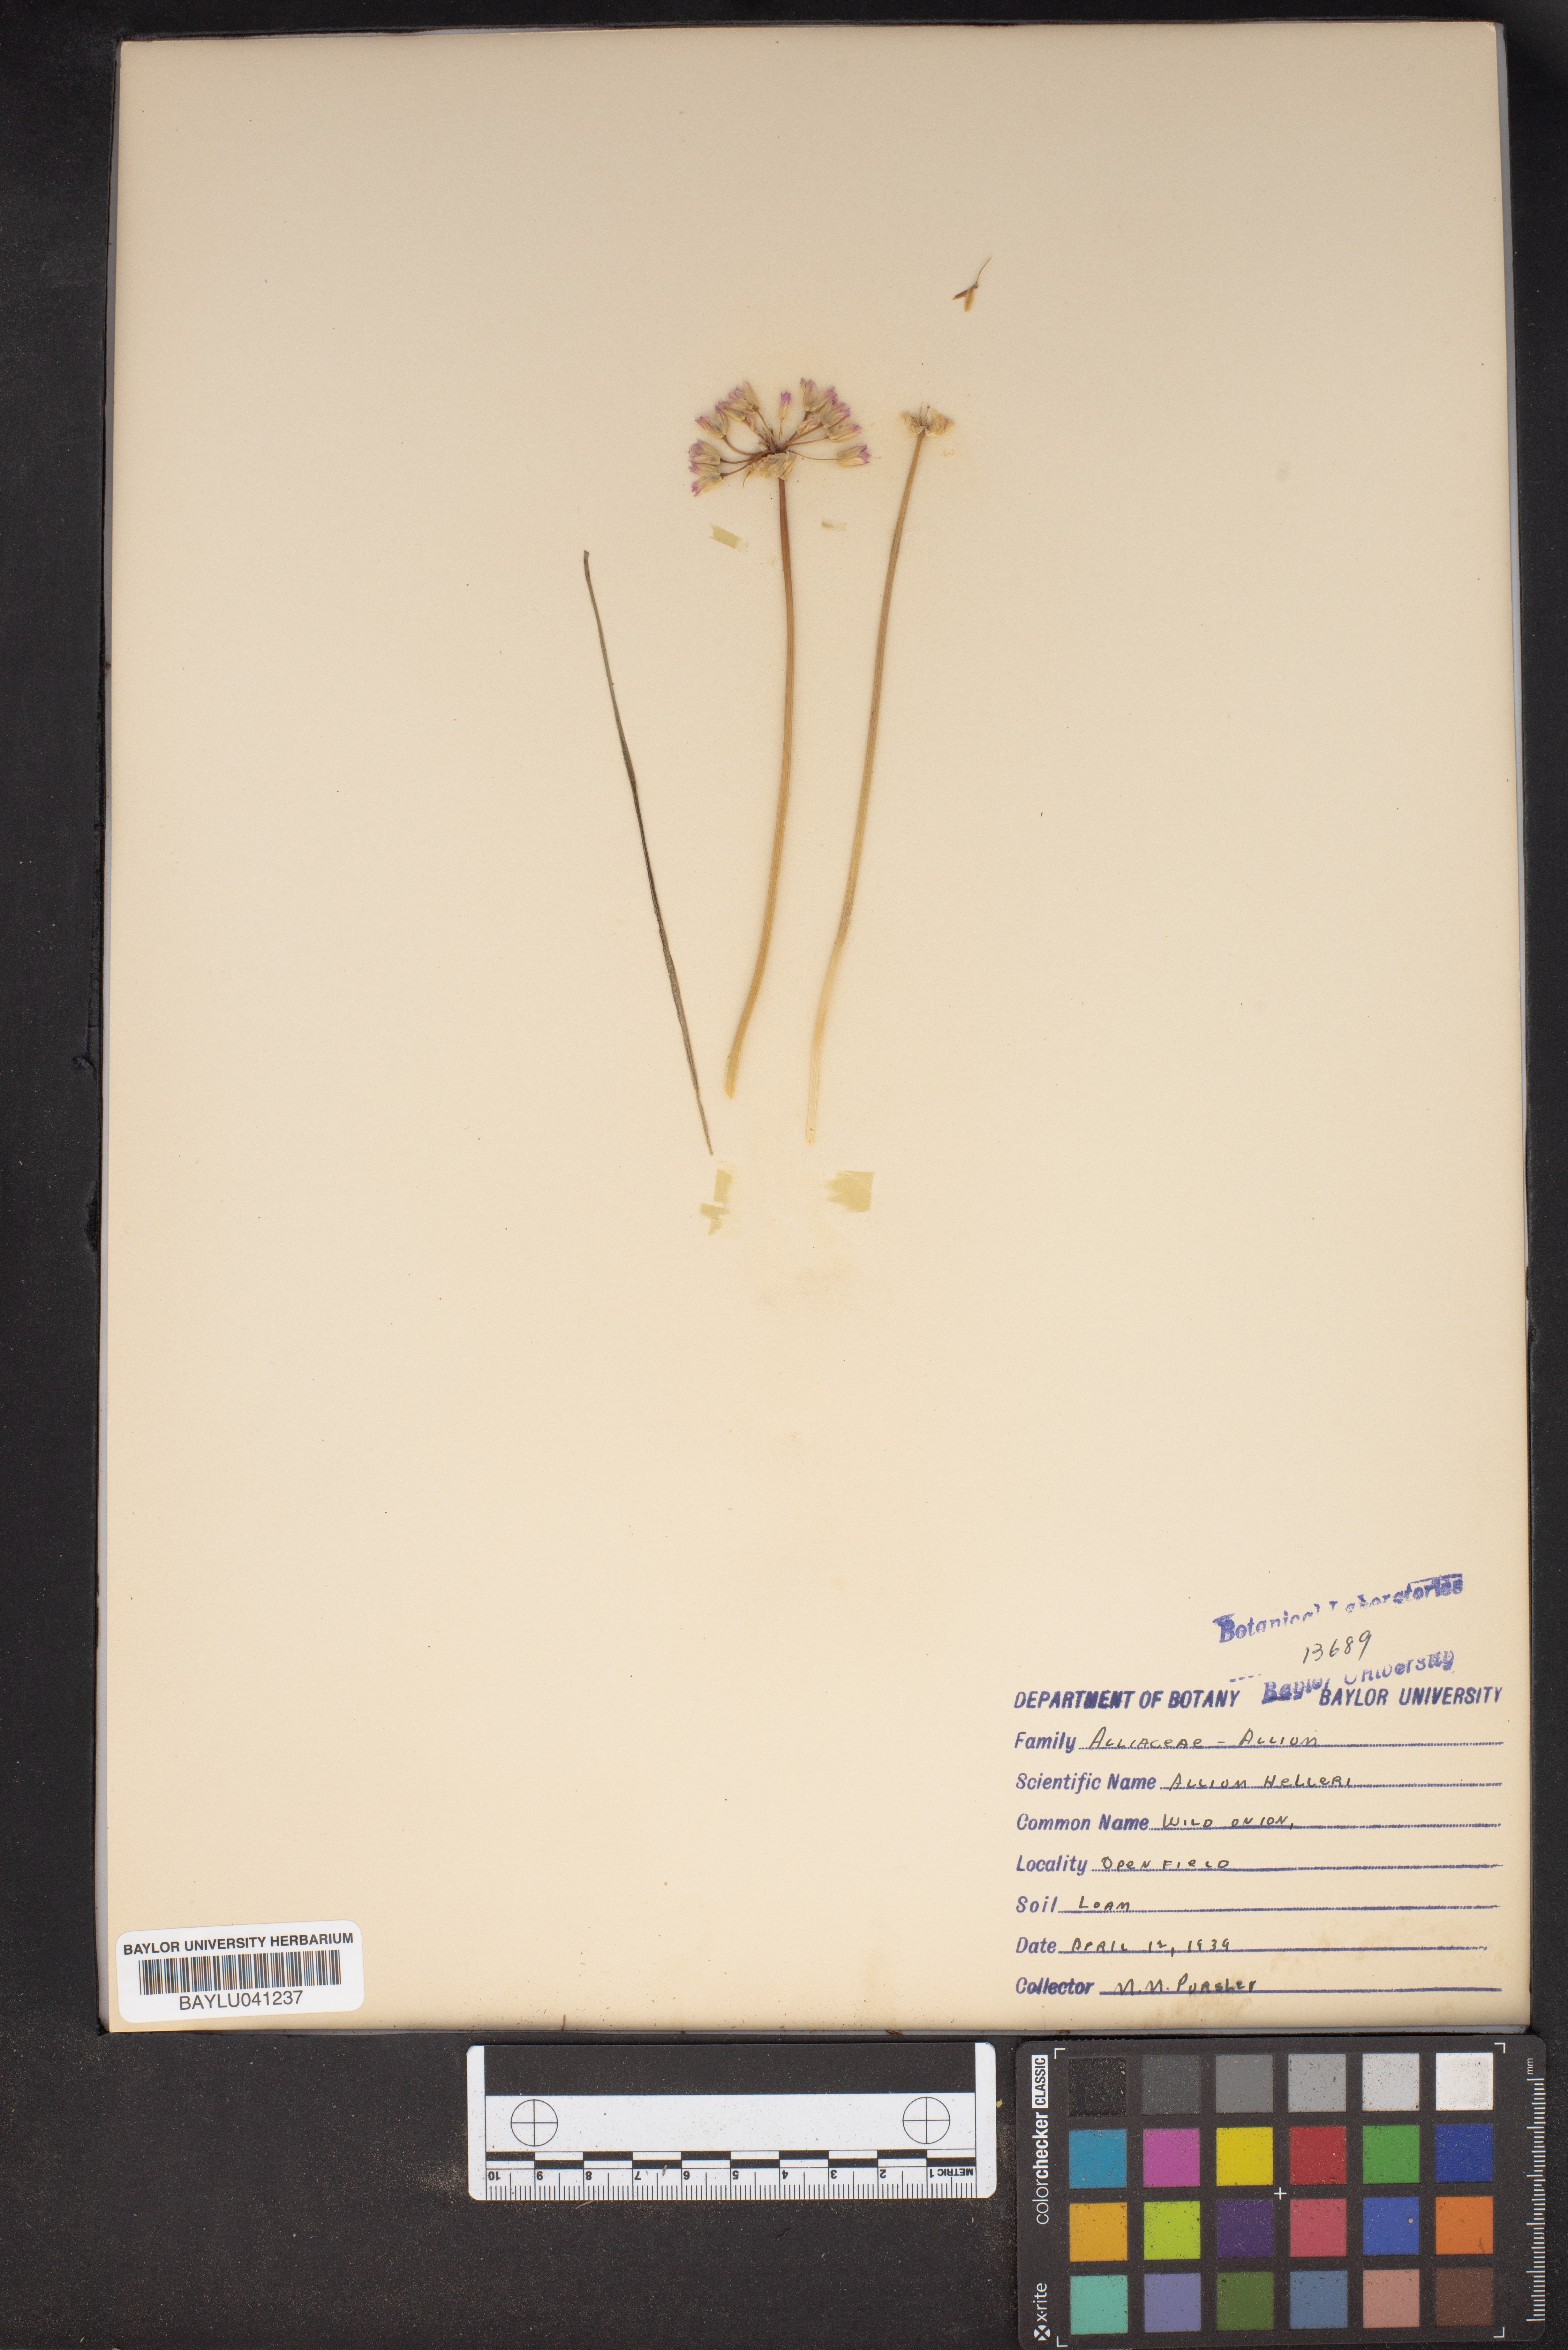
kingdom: Plantae
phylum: Tracheophyta
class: Liliopsida
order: Asparagales
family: Amaryllidaceae
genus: Allium
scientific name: Allium drummondii
